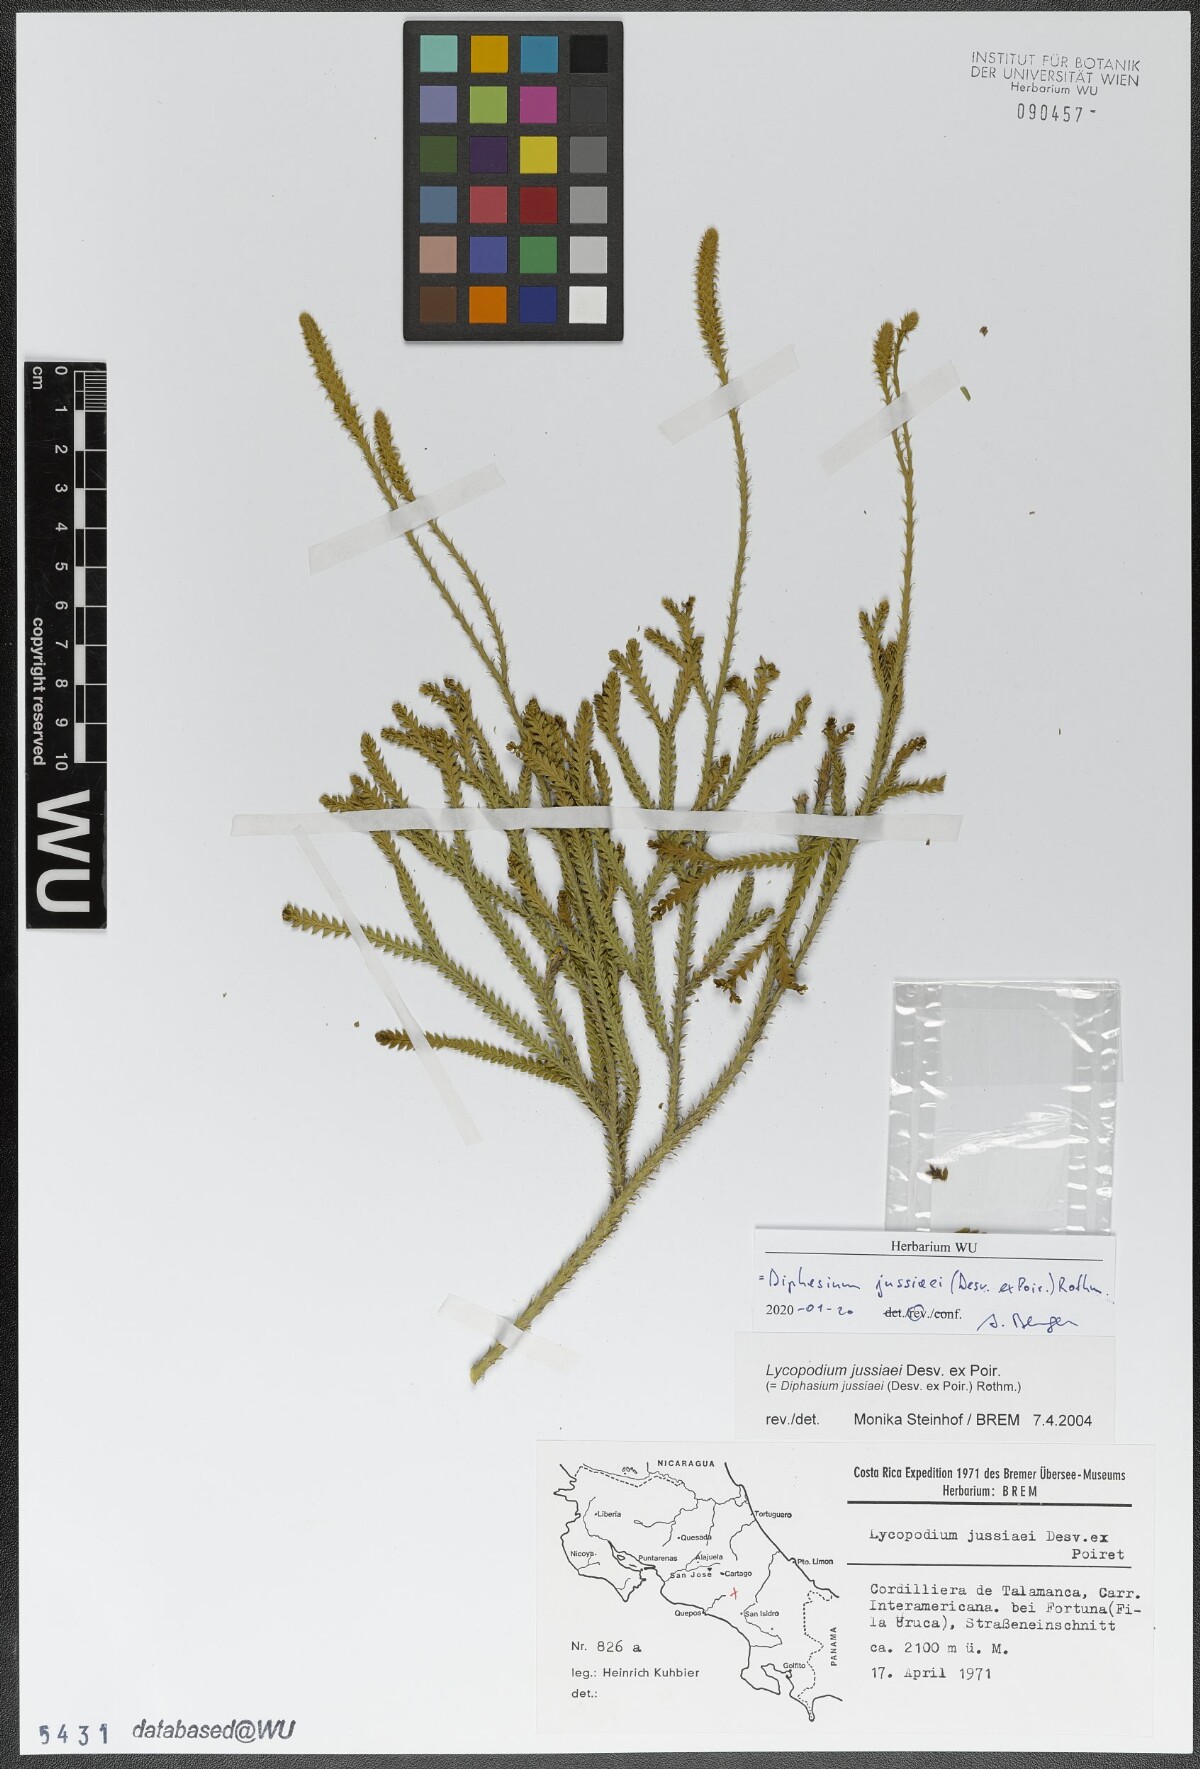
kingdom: Plantae
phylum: Tracheophyta
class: Lycopodiopsida
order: Lycopodiales
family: Lycopodiaceae
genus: Diphasium
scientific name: Diphasium jussiaei
